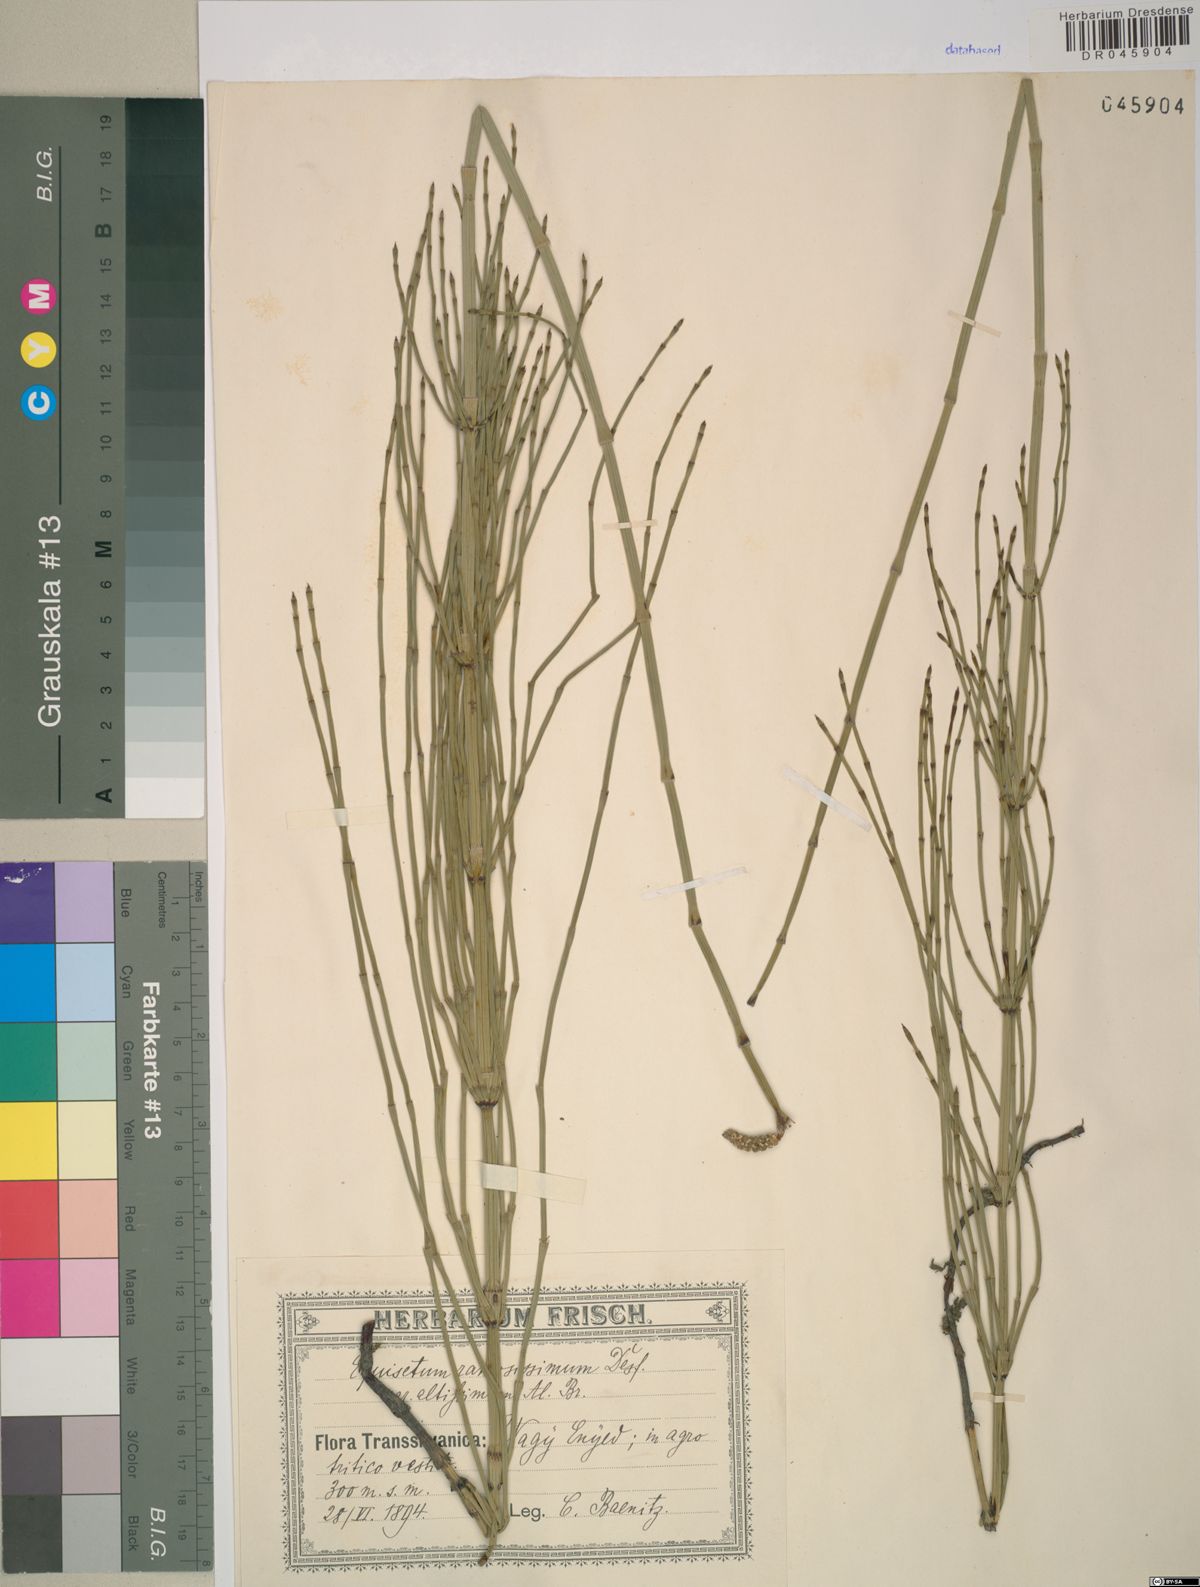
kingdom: Plantae
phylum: Tracheophyta
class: Polypodiopsida
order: Equisetales
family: Equisetaceae
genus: Equisetum
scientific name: Equisetum ramosissimum
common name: Branched horsetail
